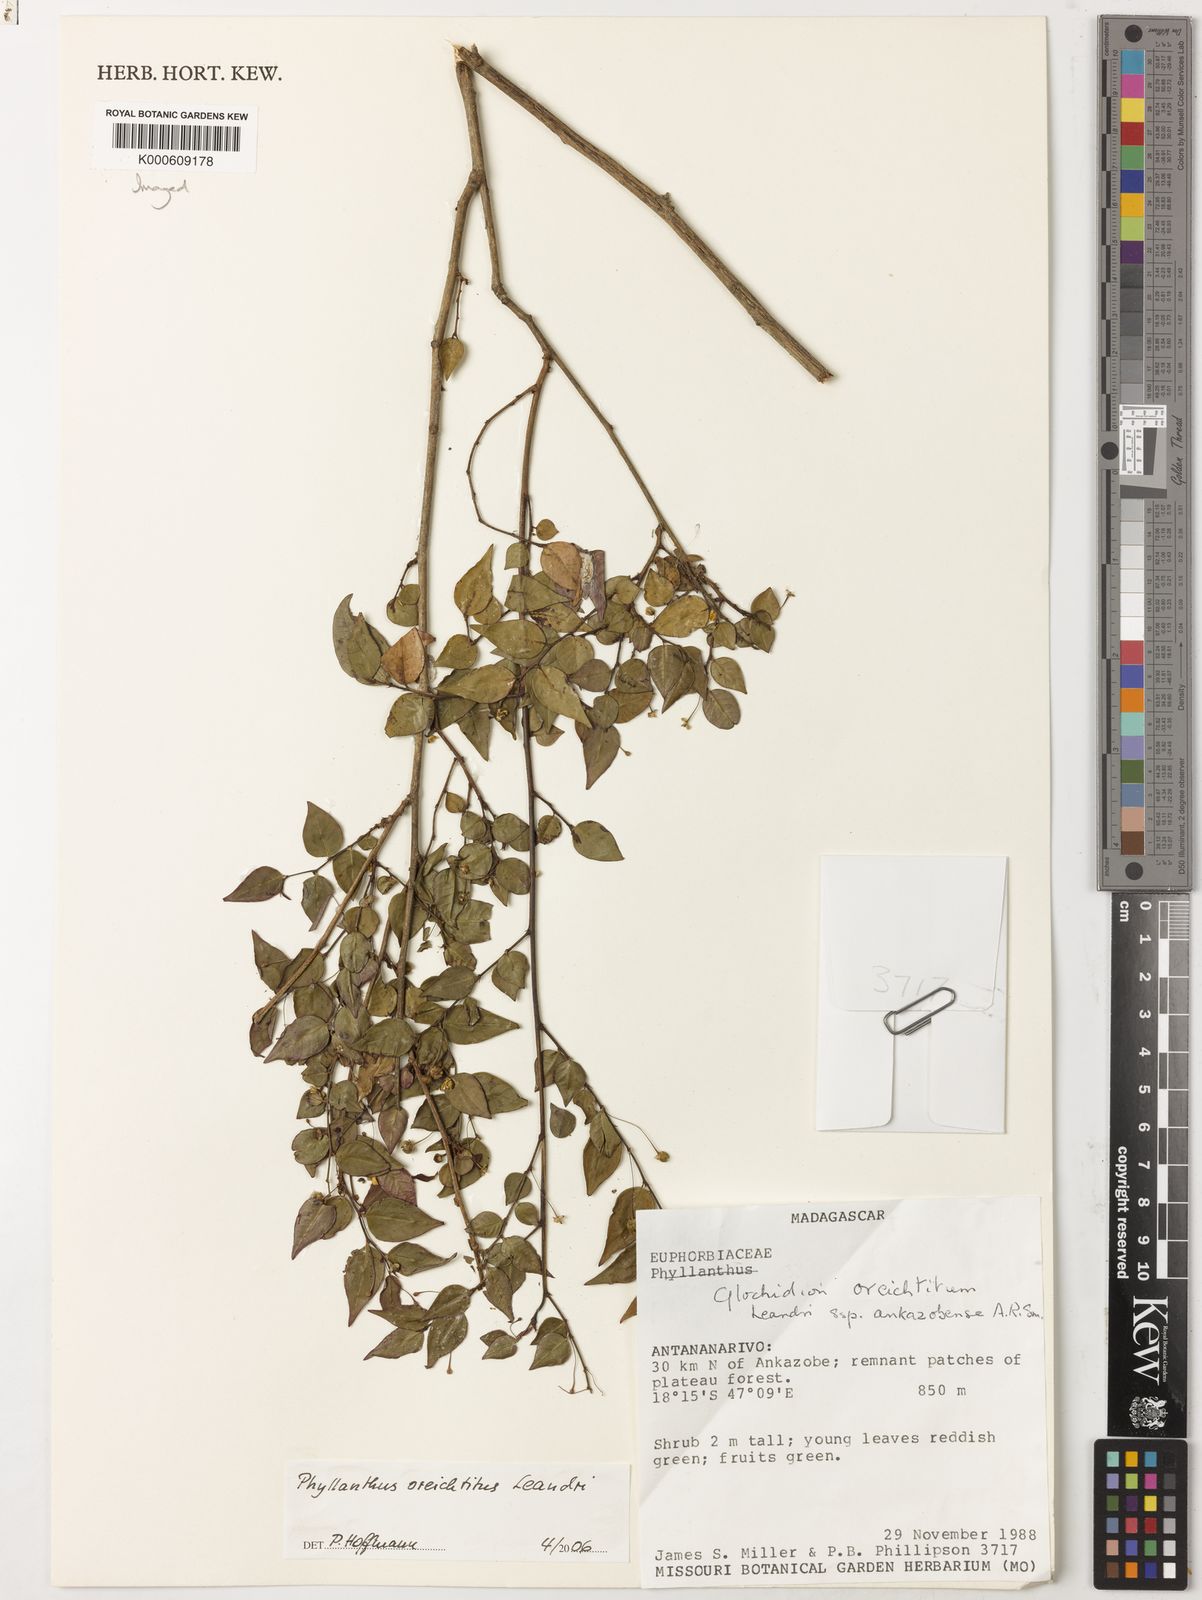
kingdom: Plantae
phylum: Tracheophyta
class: Magnoliopsida
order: Malpighiales
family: Phyllanthaceae
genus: Phyllanthus
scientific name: Phyllanthus oreichtitus
